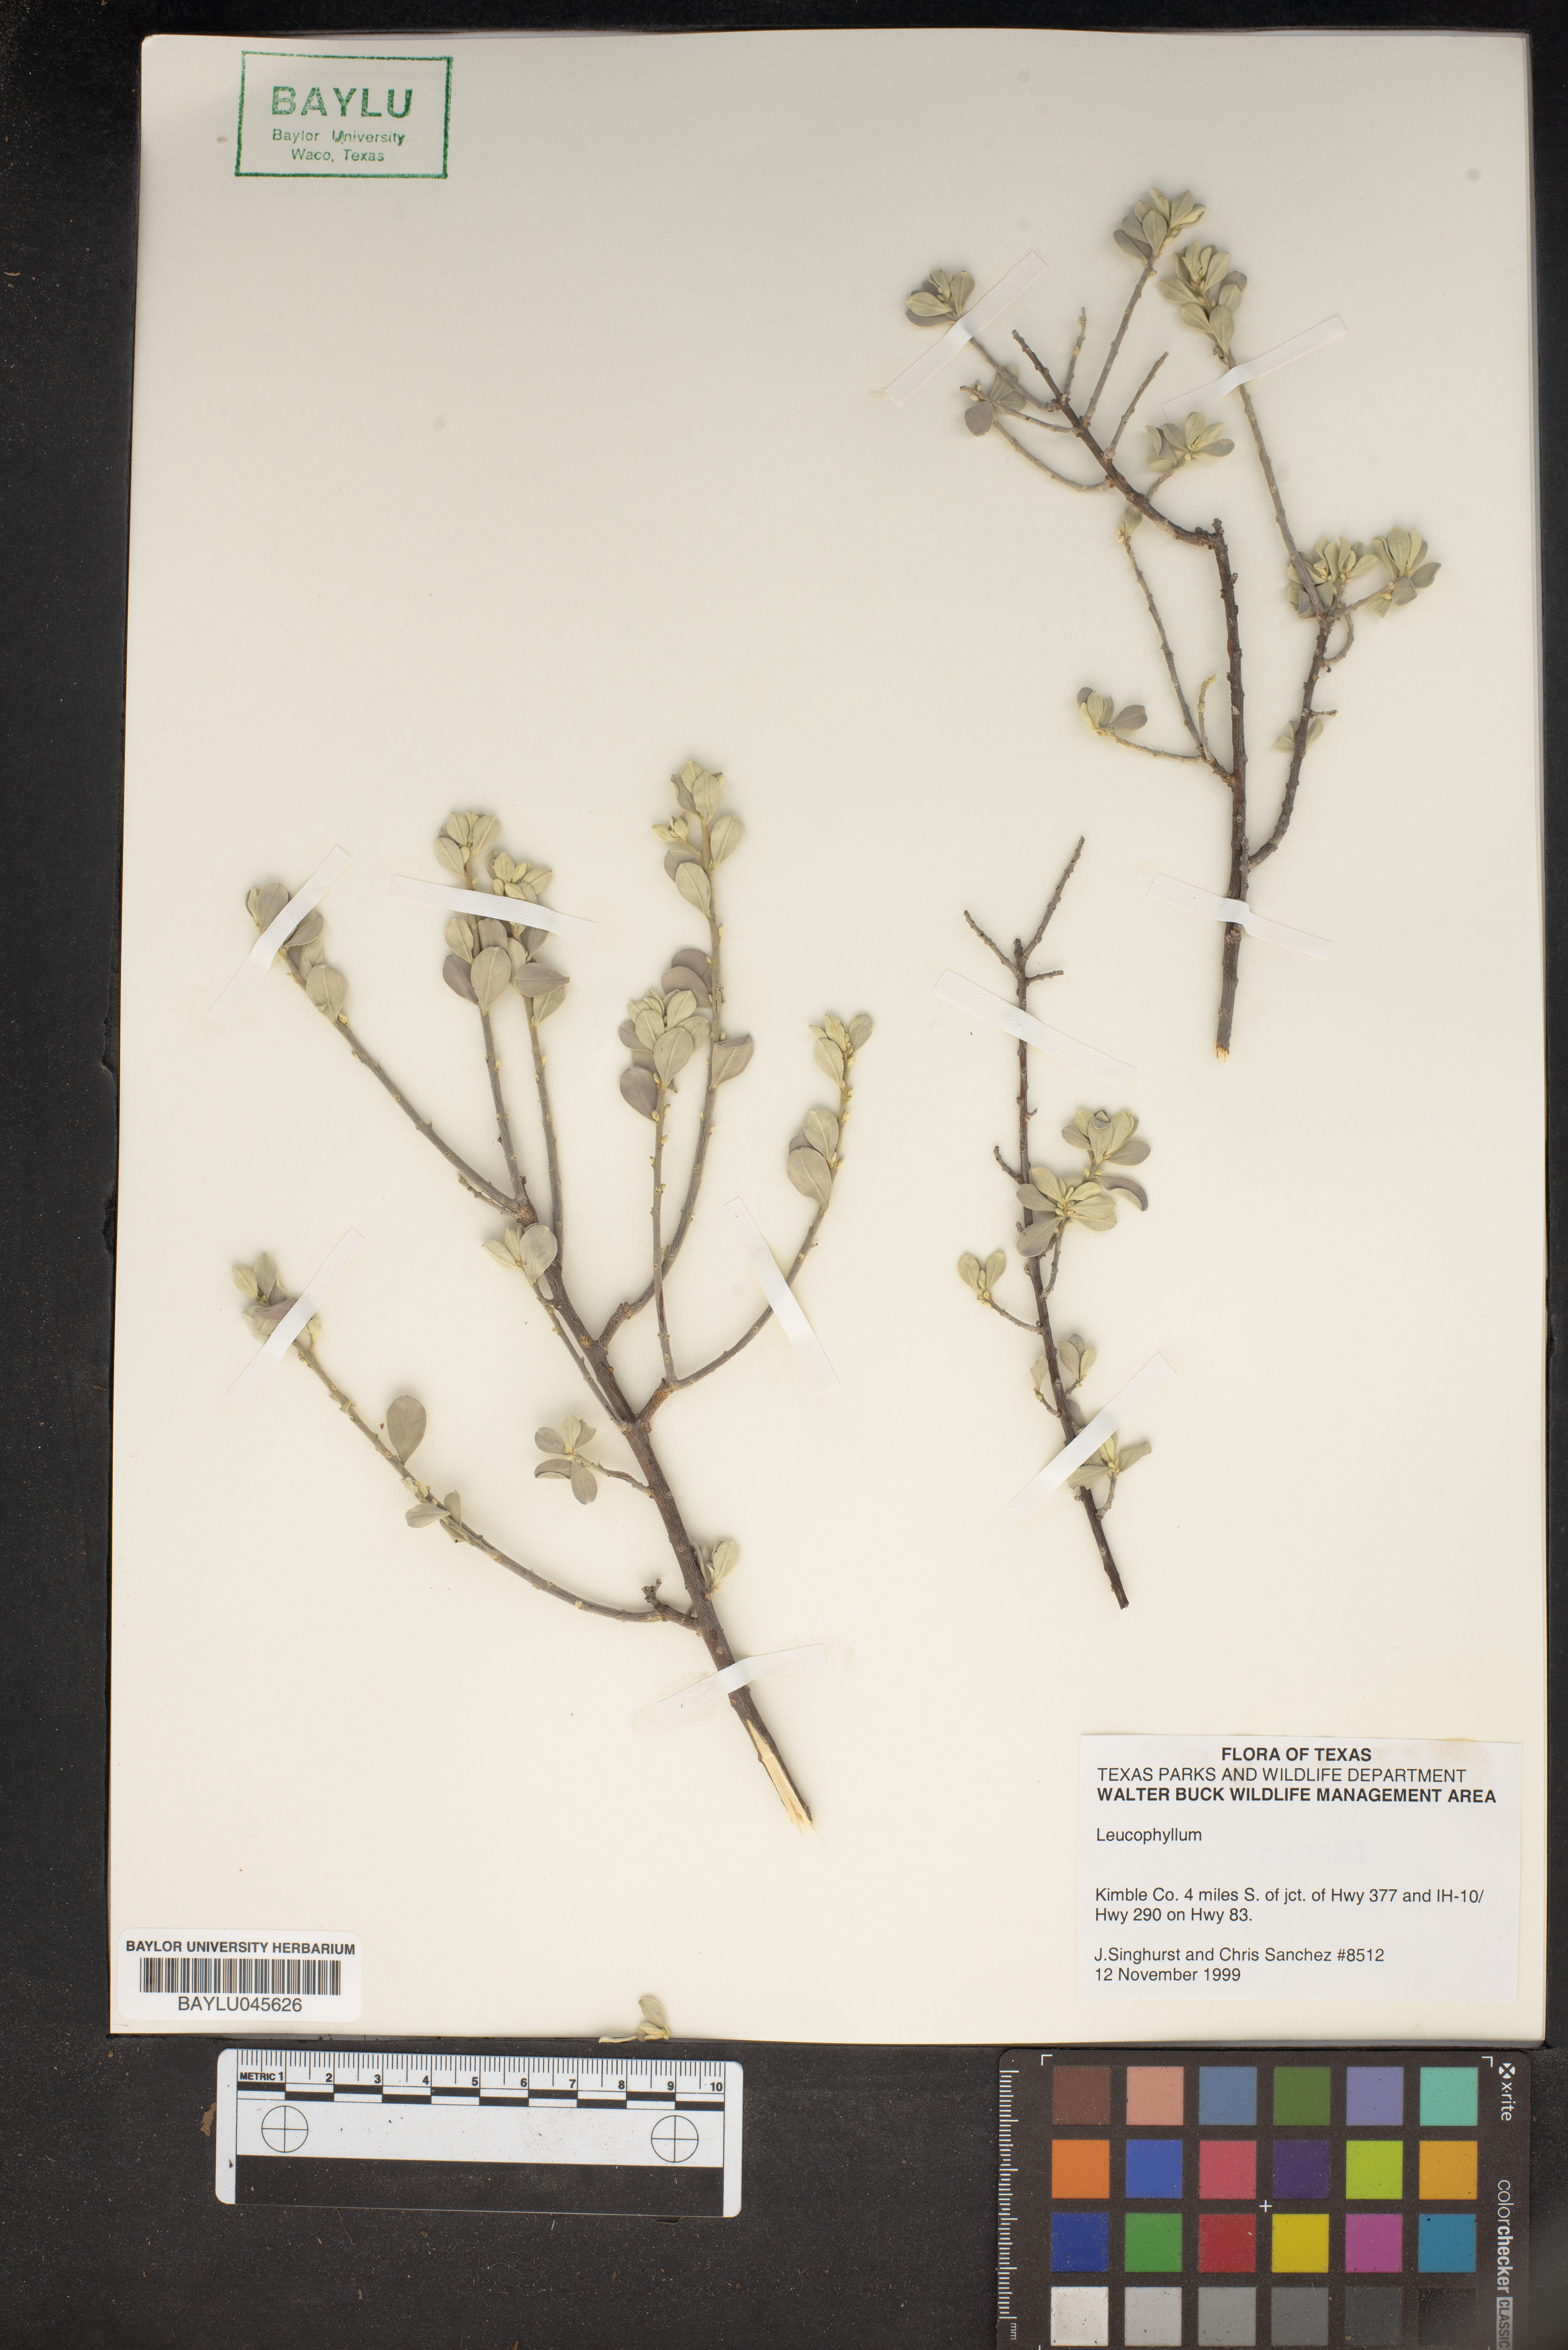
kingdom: Plantae
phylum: Tracheophyta
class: Magnoliopsida
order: Lamiales
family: Scrophulariaceae
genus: Leucophyllum
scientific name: Leucophyllum
